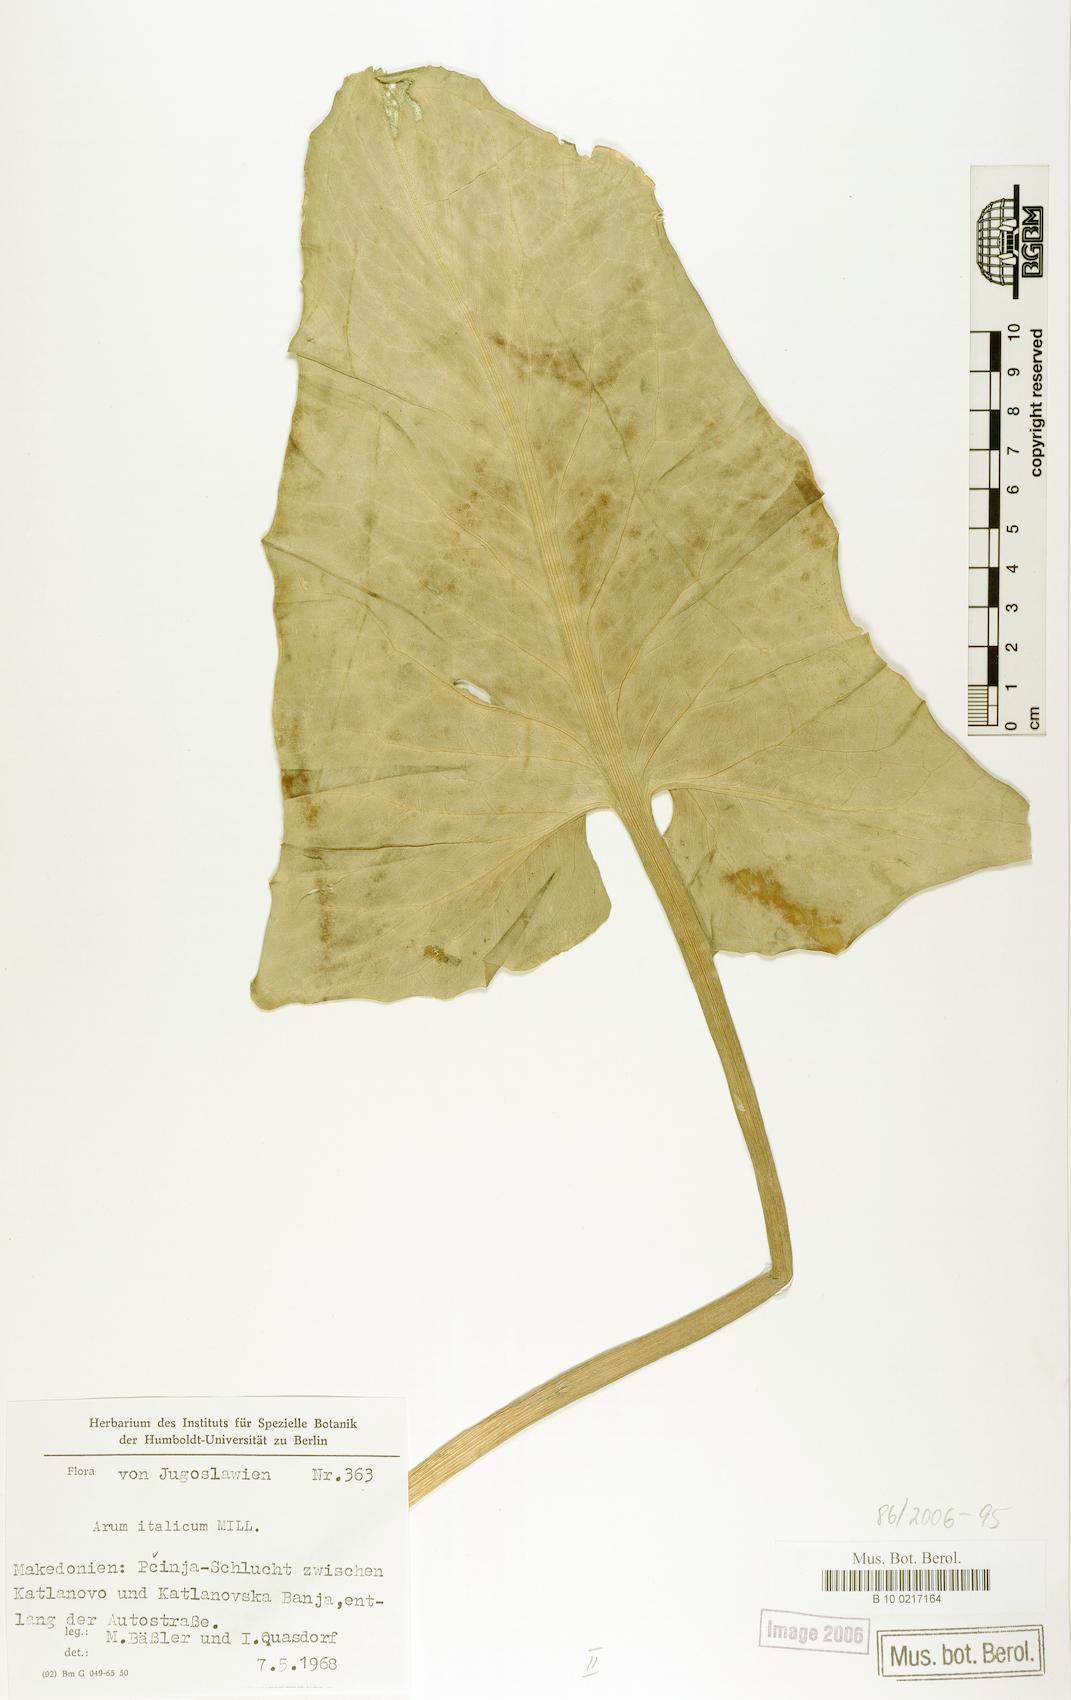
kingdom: Plantae
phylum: Tracheophyta
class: Liliopsida
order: Alismatales
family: Araceae
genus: Arum
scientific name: Arum italicum
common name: Italian lords-and-ladies
